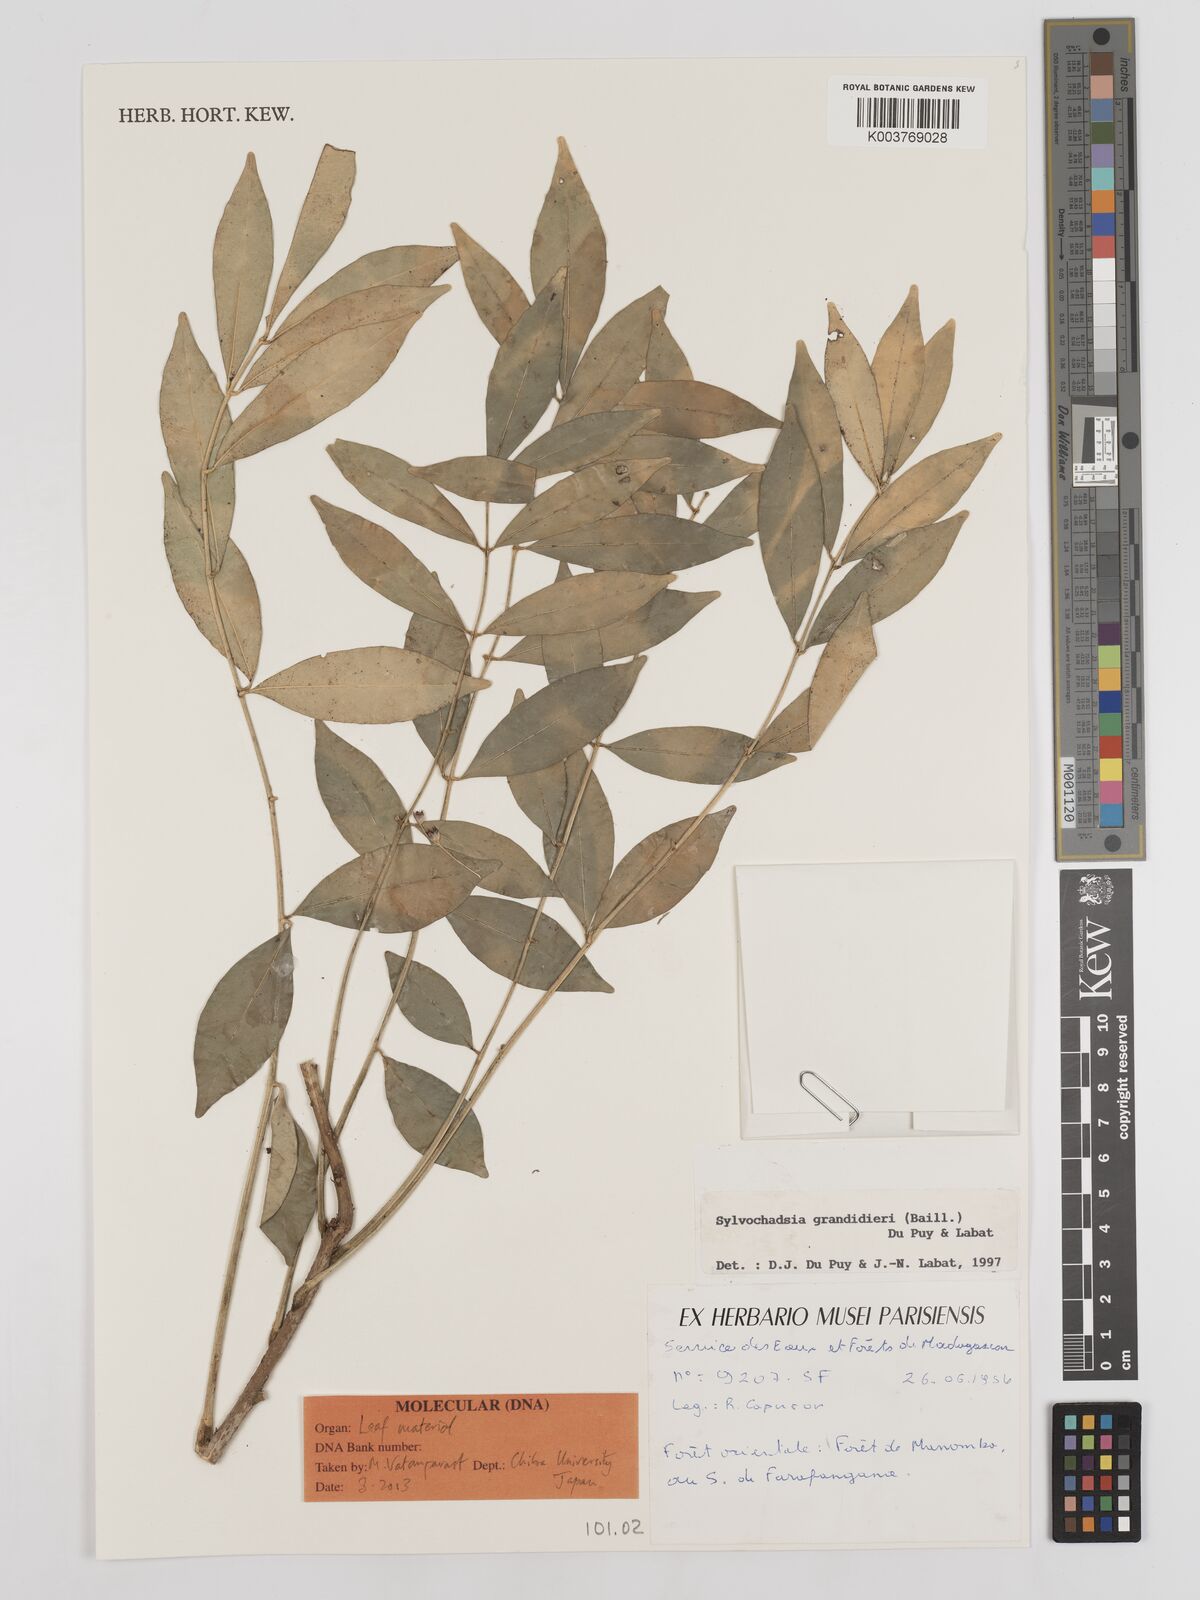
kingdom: Plantae
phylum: Tracheophyta
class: Magnoliopsida
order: Fabales
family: Fabaceae
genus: Sylvichadsia
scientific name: Sylvichadsia grandidieri
